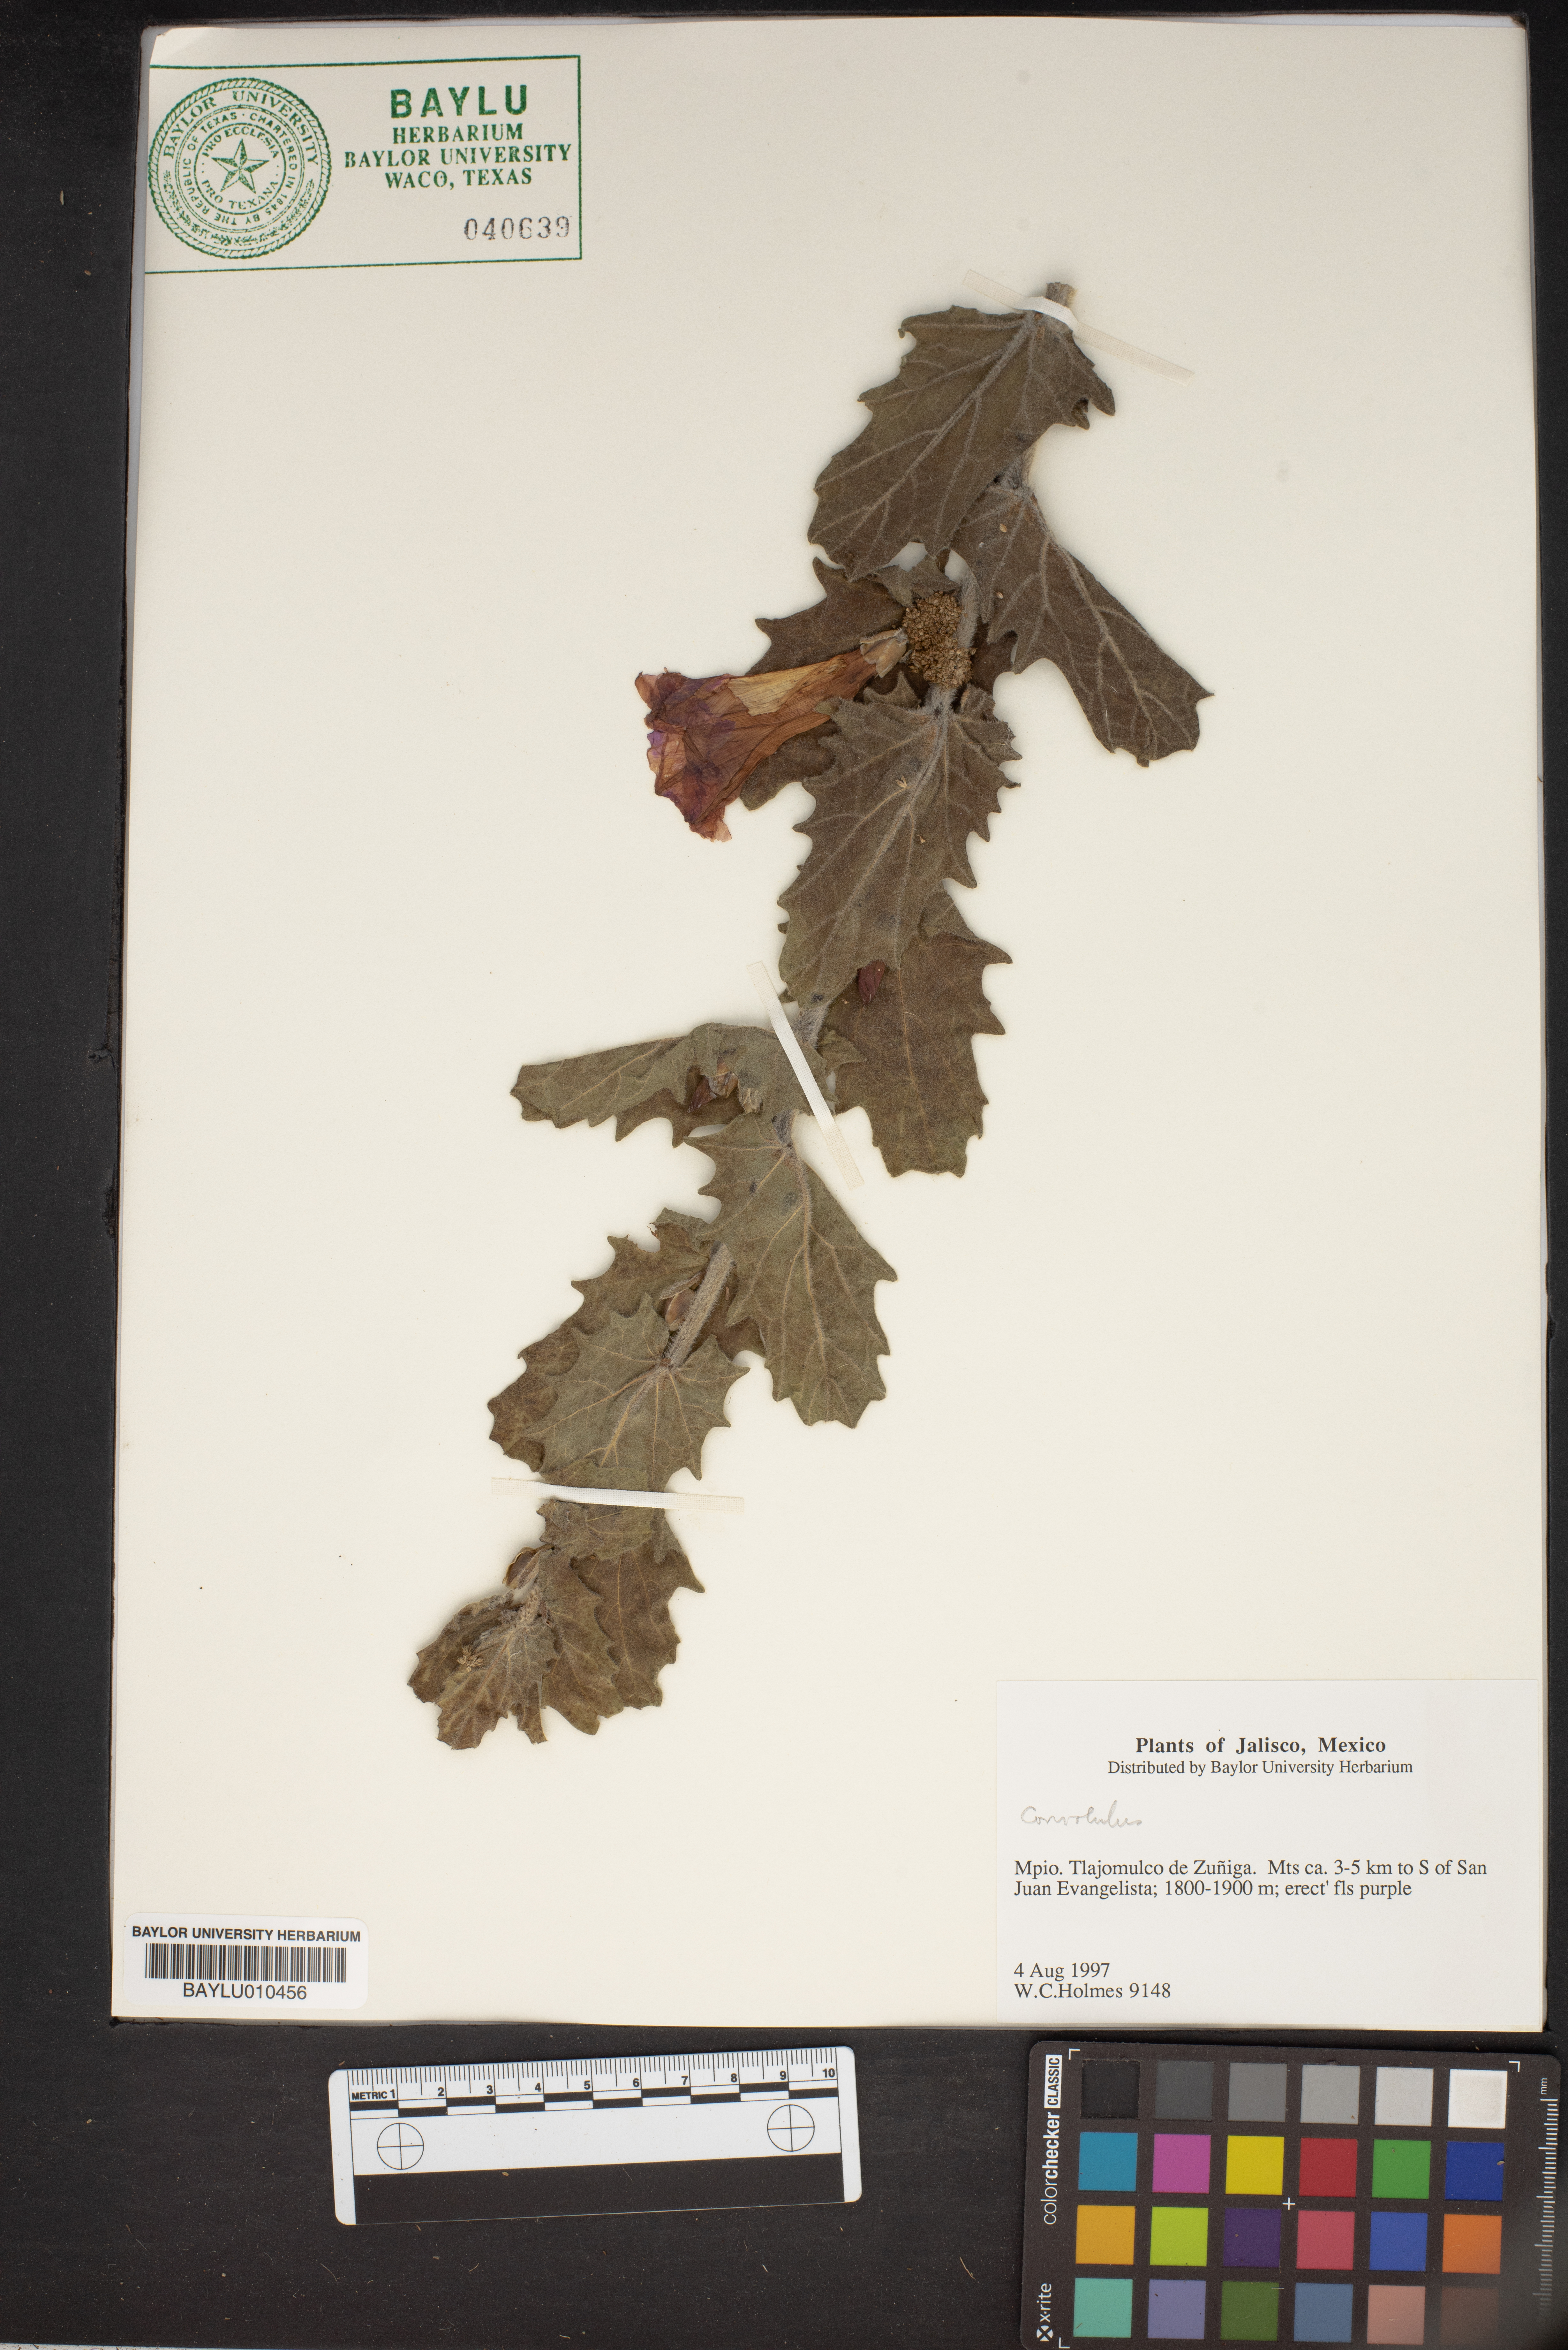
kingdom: Plantae
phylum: Tracheophyta
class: Magnoliopsida
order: Solanales
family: Convolvulaceae
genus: Convolvulus
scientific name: Convolvulus
